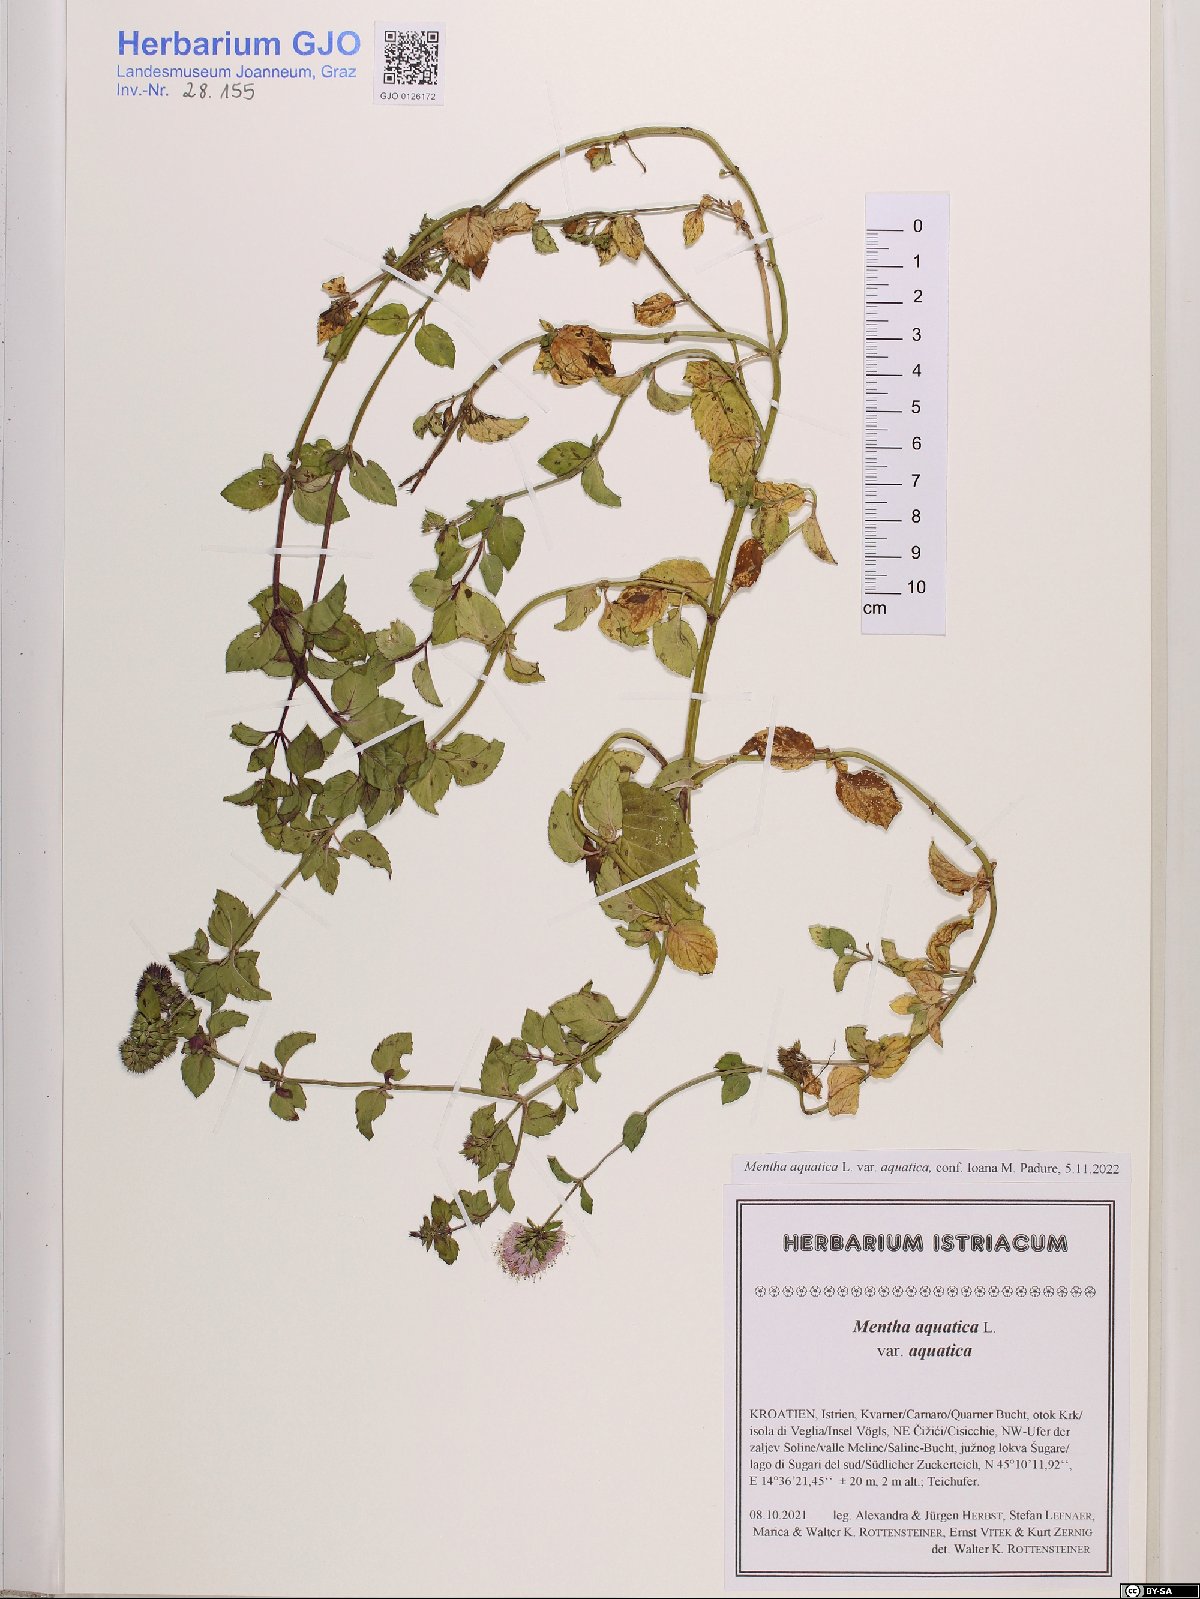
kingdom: Plantae
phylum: Tracheophyta
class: Magnoliopsida
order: Lamiales
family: Lamiaceae
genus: Mentha
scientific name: Mentha aquatica
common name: Water mint
